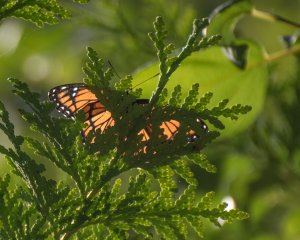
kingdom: Animalia
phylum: Arthropoda
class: Insecta
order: Lepidoptera
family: Nymphalidae
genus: Limenitis
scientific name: Limenitis archippus
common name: Viceroy
